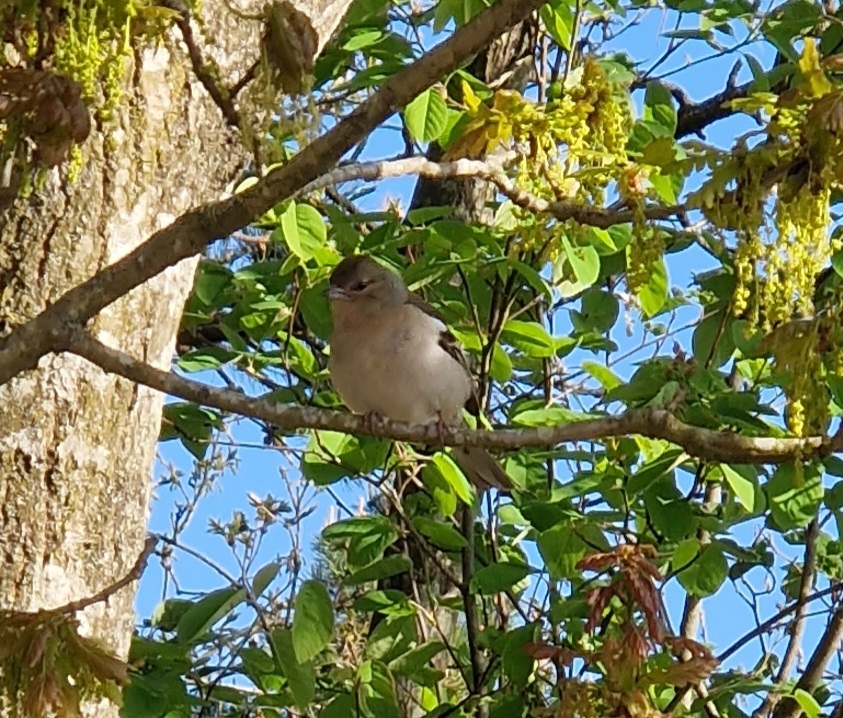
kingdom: Animalia
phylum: Chordata
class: Aves
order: Passeriformes
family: Fringillidae
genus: Fringilla
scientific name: Fringilla coelebs
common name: Bogfinke
